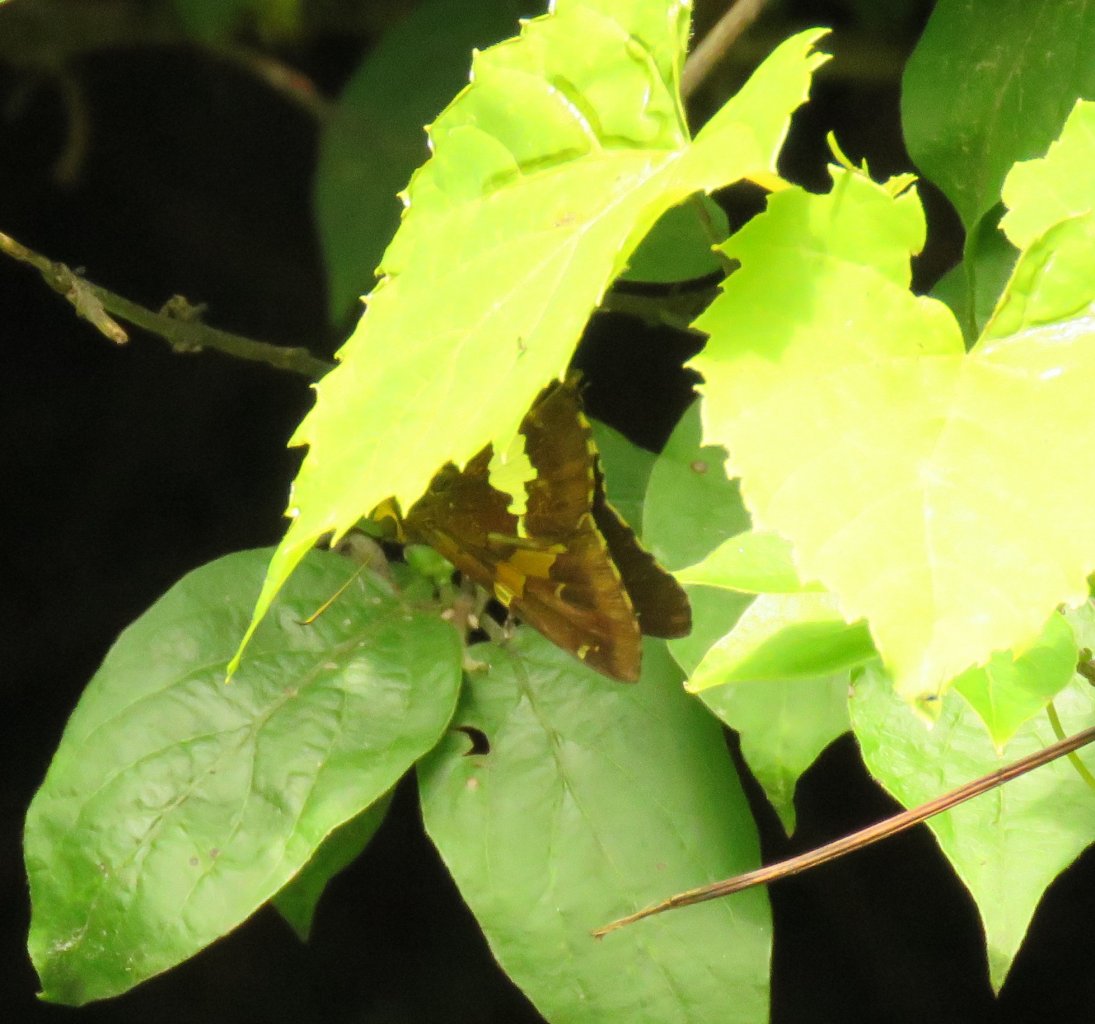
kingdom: Animalia
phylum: Arthropoda
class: Insecta
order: Lepidoptera
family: Hesperiidae
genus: Epargyreus
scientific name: Epargyreus clarus
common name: Silver-spotted Skipper
